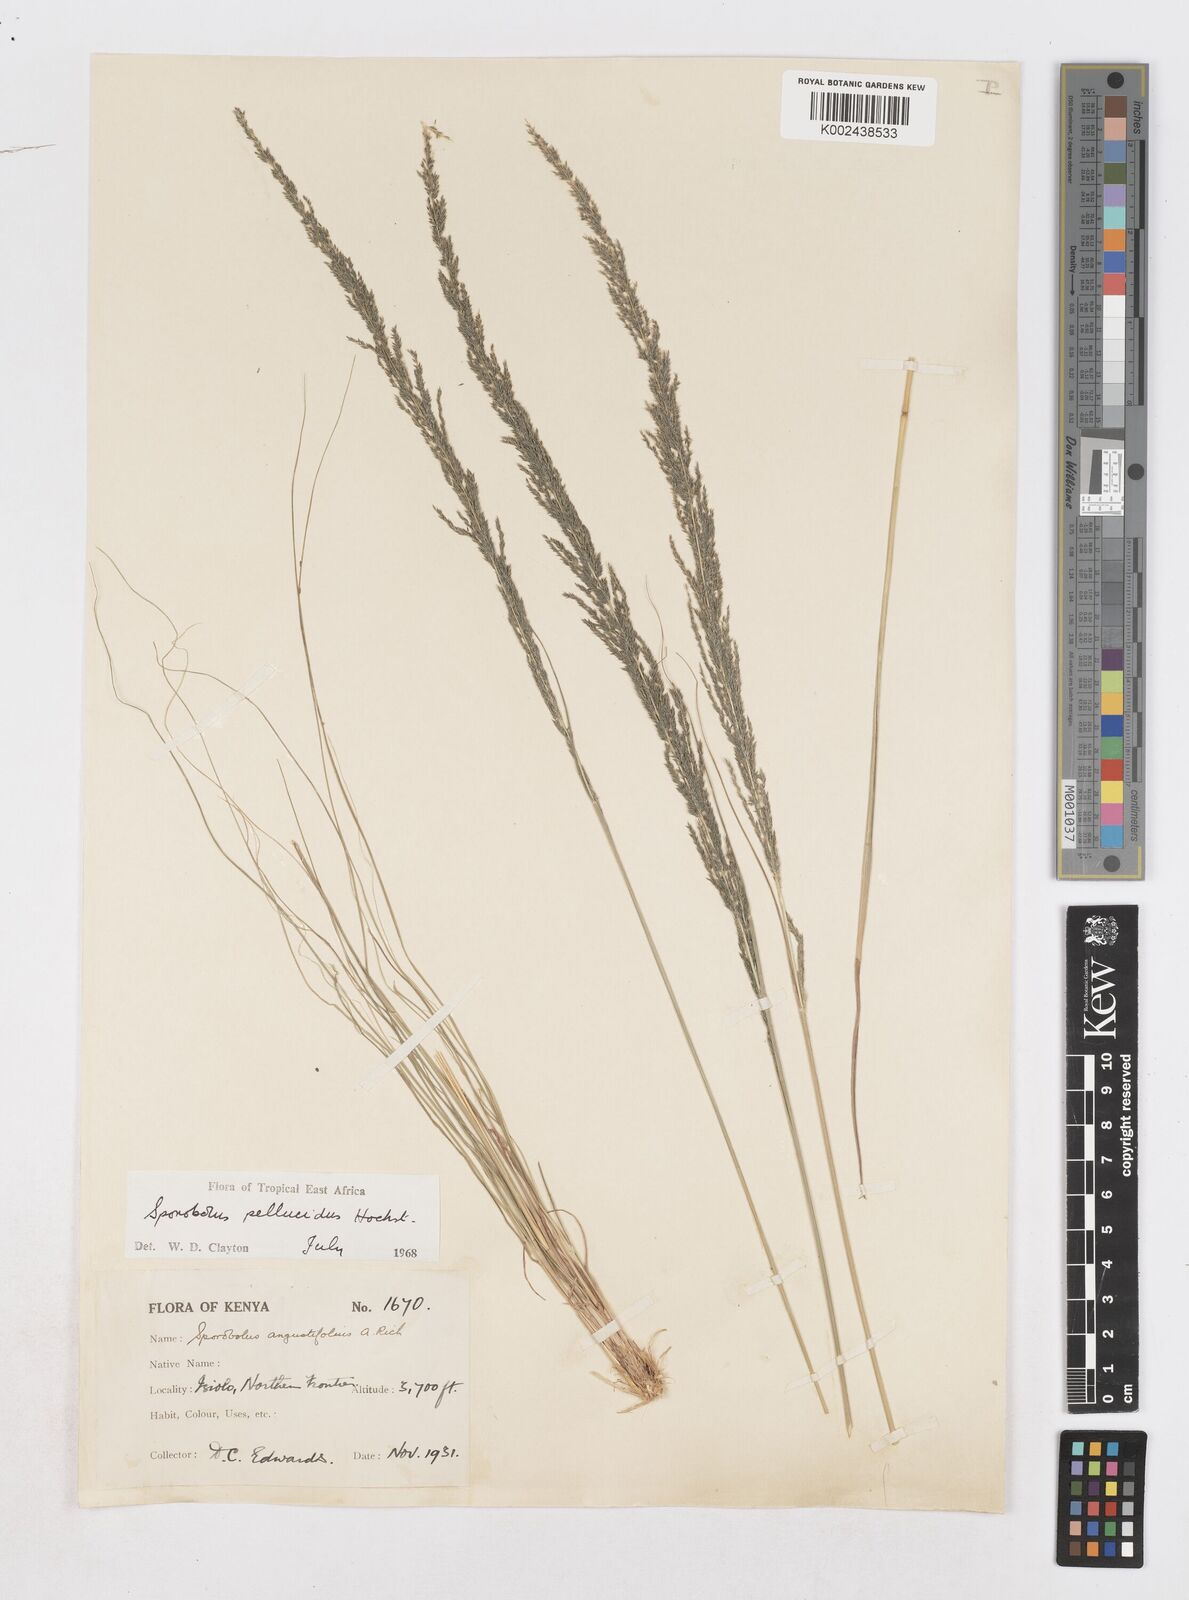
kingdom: Plantae
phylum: Tracheophyta
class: Liliopsida
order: Poales
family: Poaceae
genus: Sporobolus
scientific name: Sporobolus pellucidus
